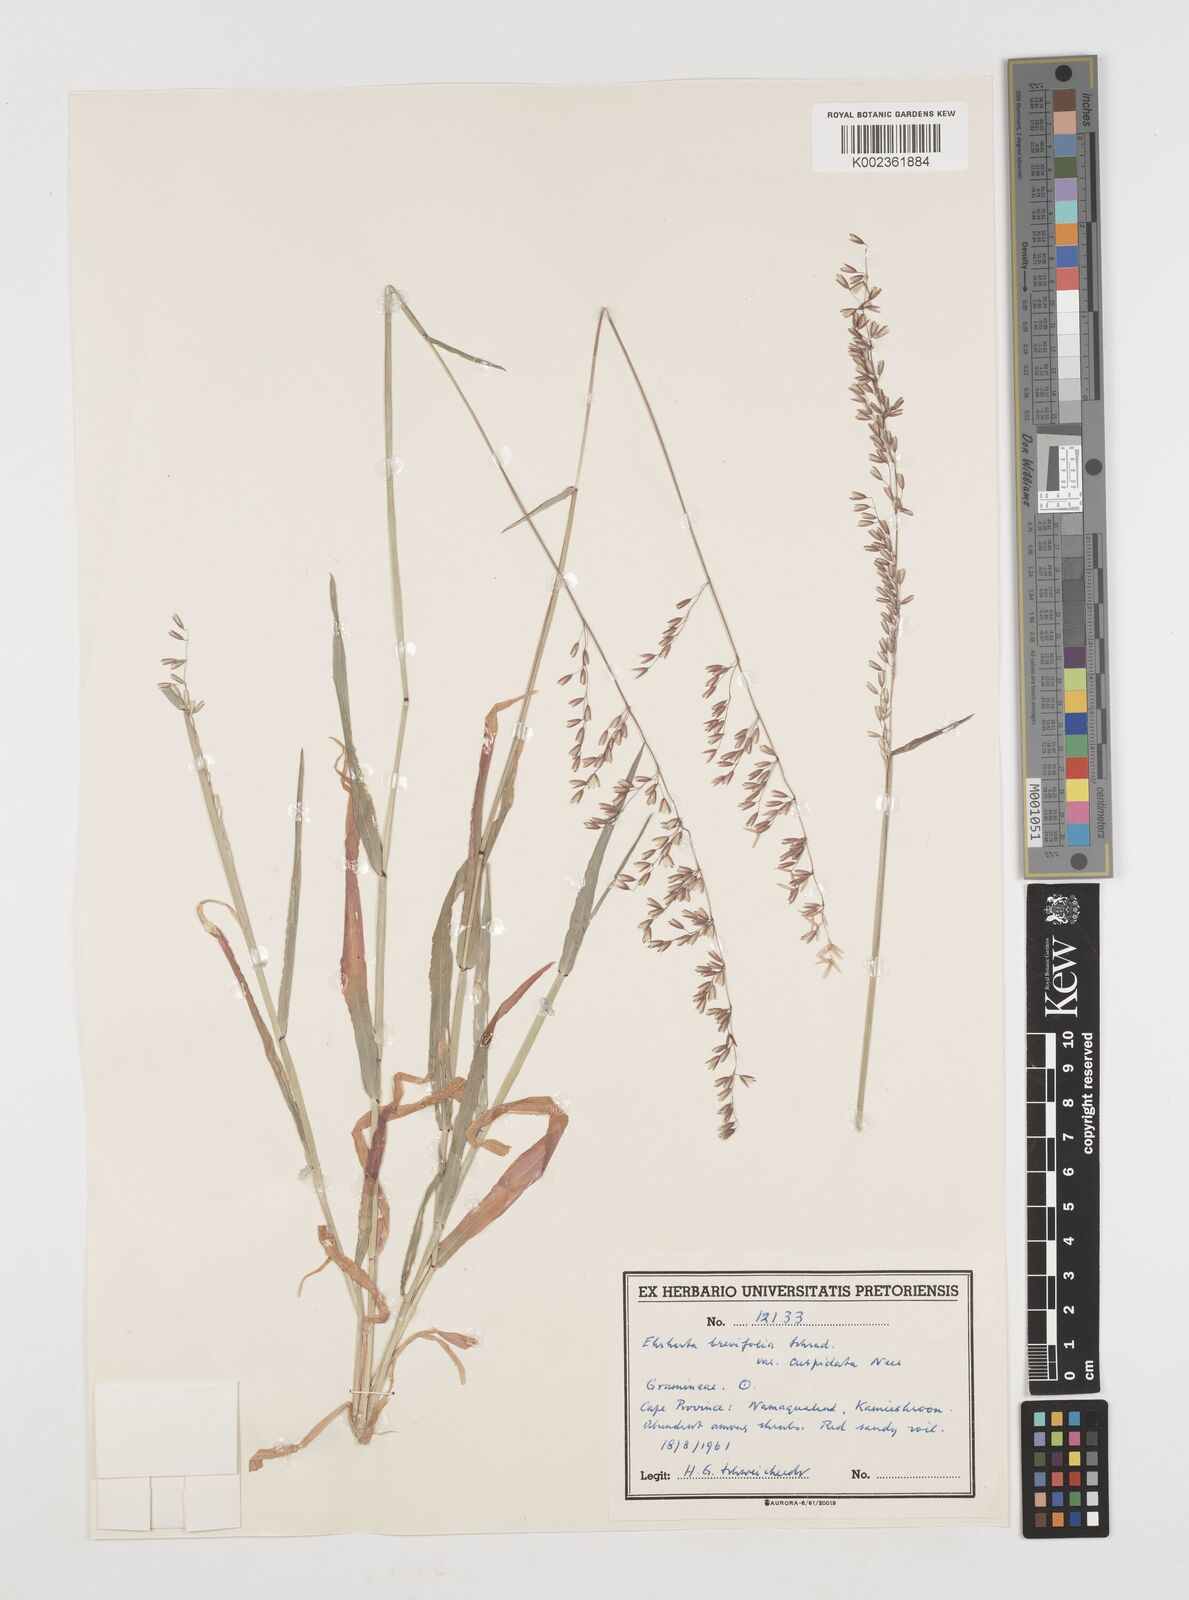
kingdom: Plantae
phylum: Tracheophyta
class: Liliopsida
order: Poales
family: Poaceae
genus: Ehrharta
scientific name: Ehrharta
